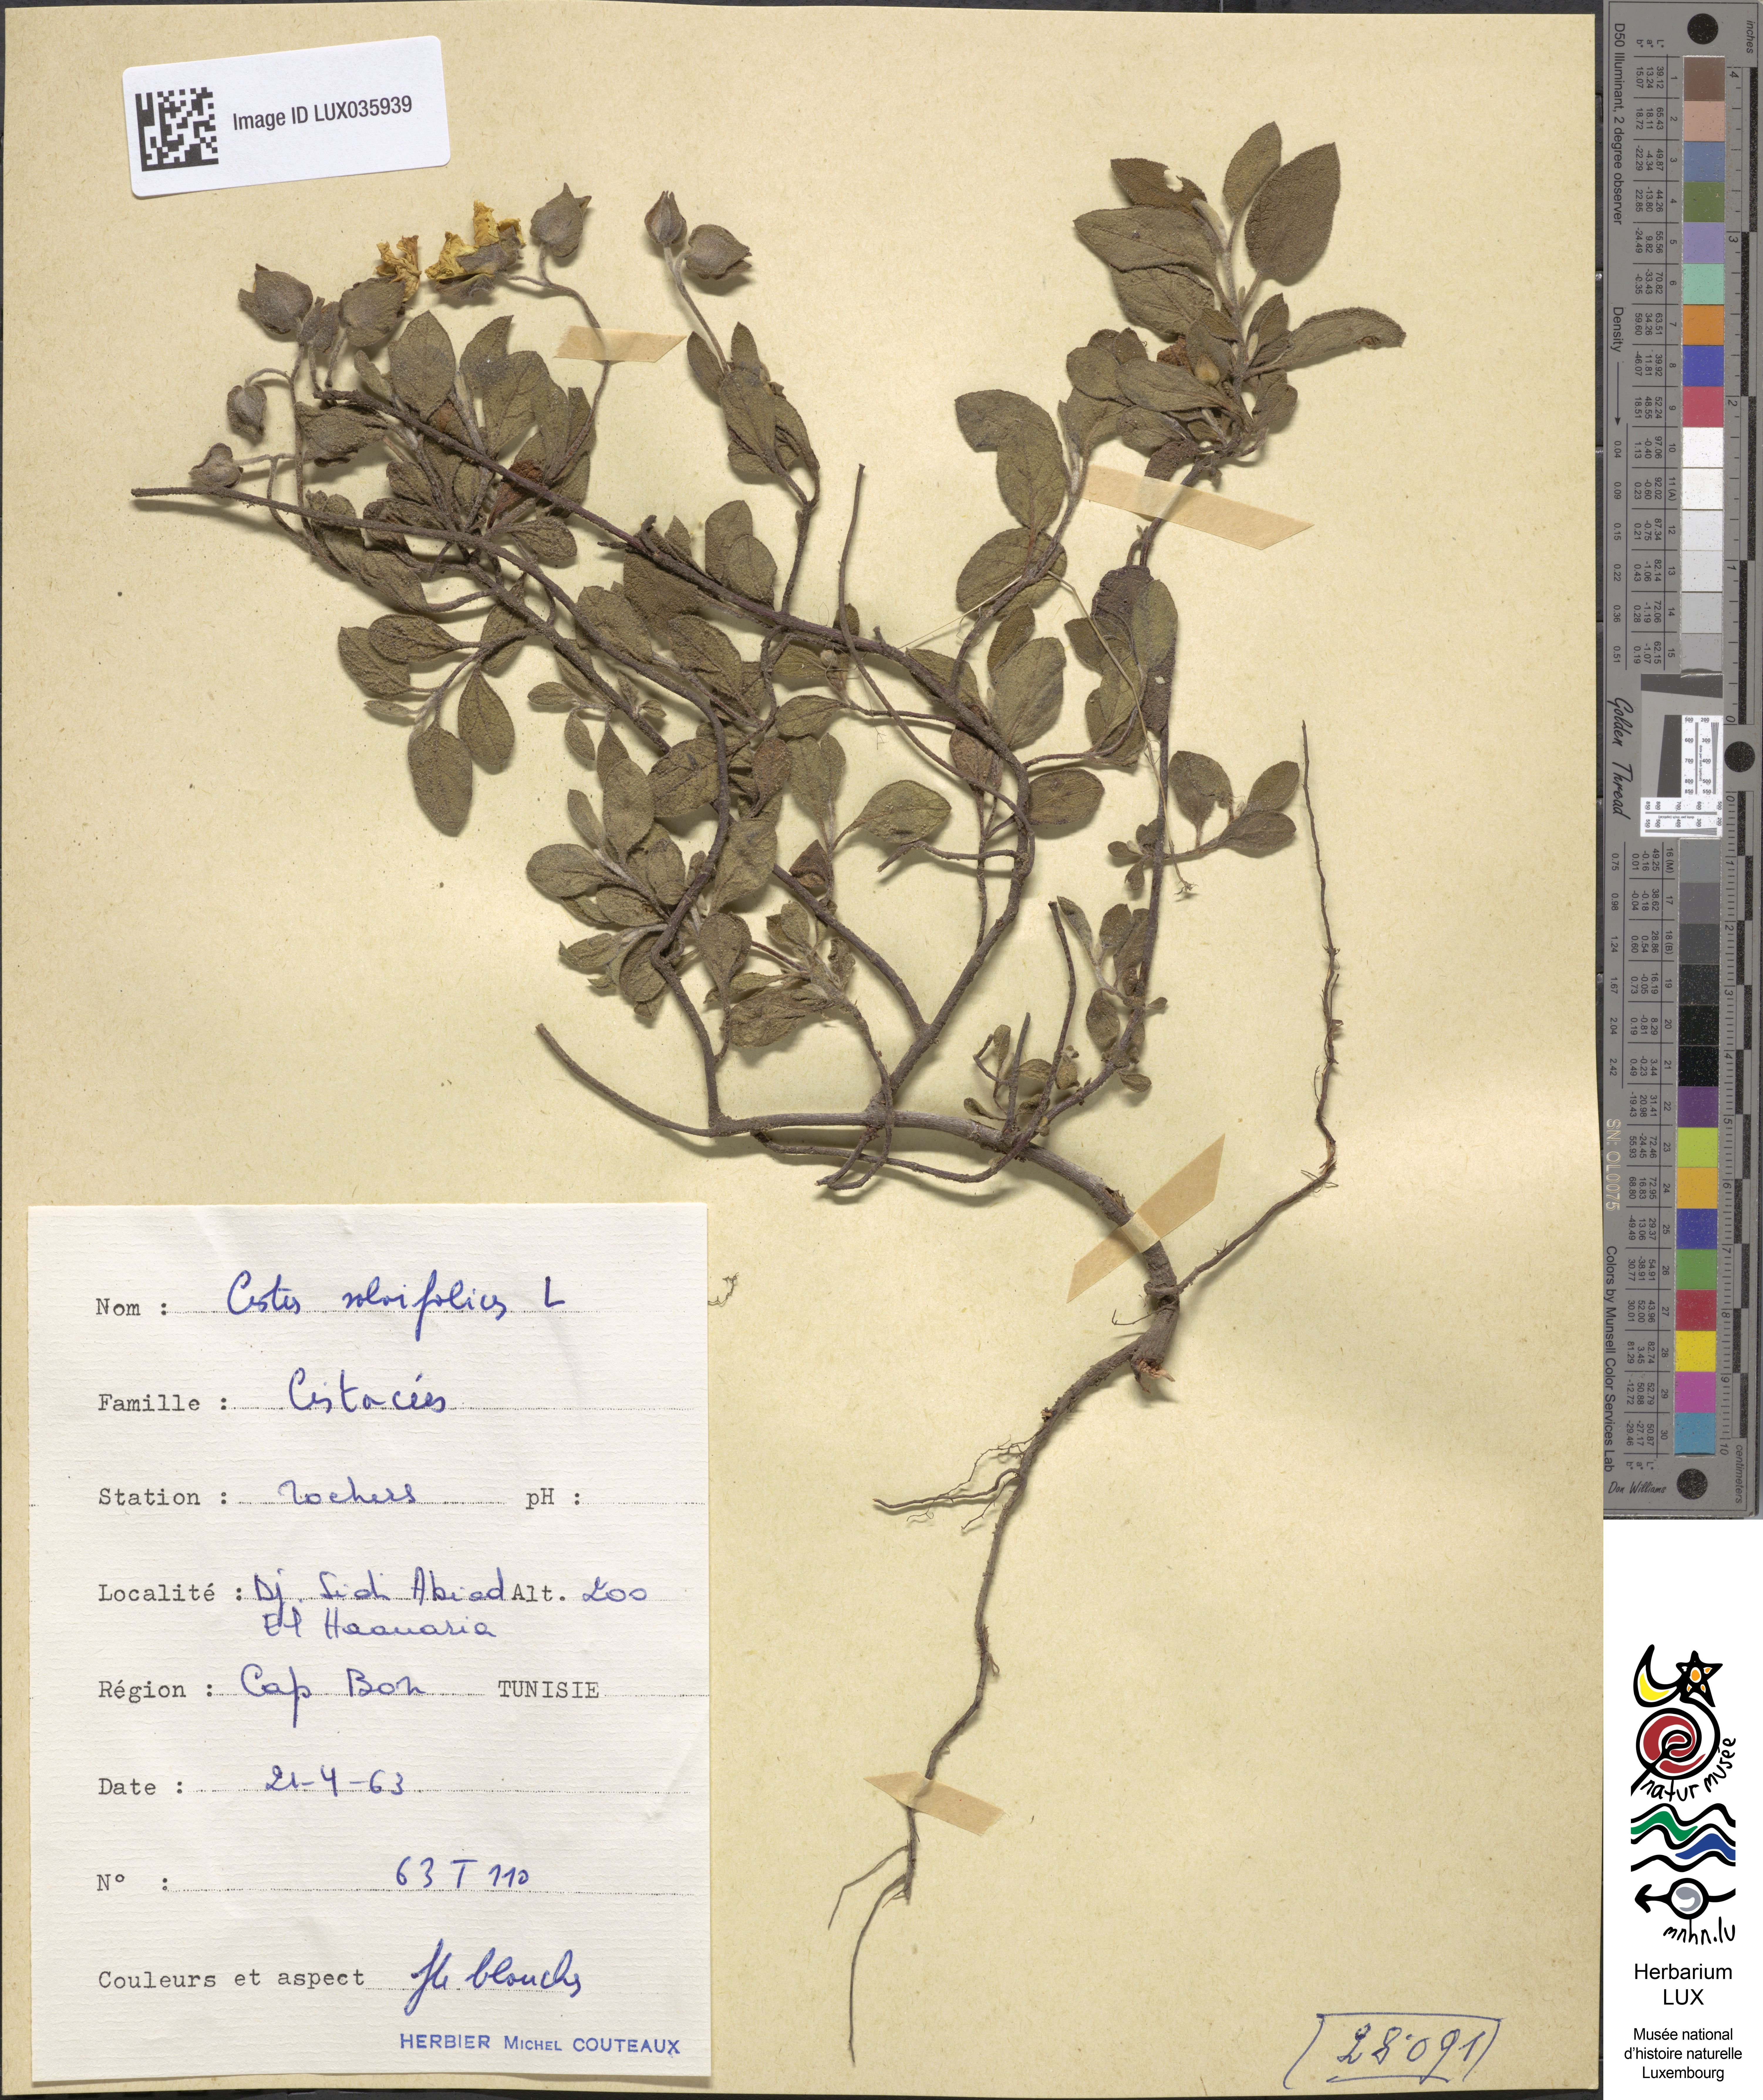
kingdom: Plantae
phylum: Tracheophyta
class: Magnoliopsida
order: Malvales
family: Cistaceae
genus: Cistus
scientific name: Cistus salviifolius
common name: Salvia cistus
